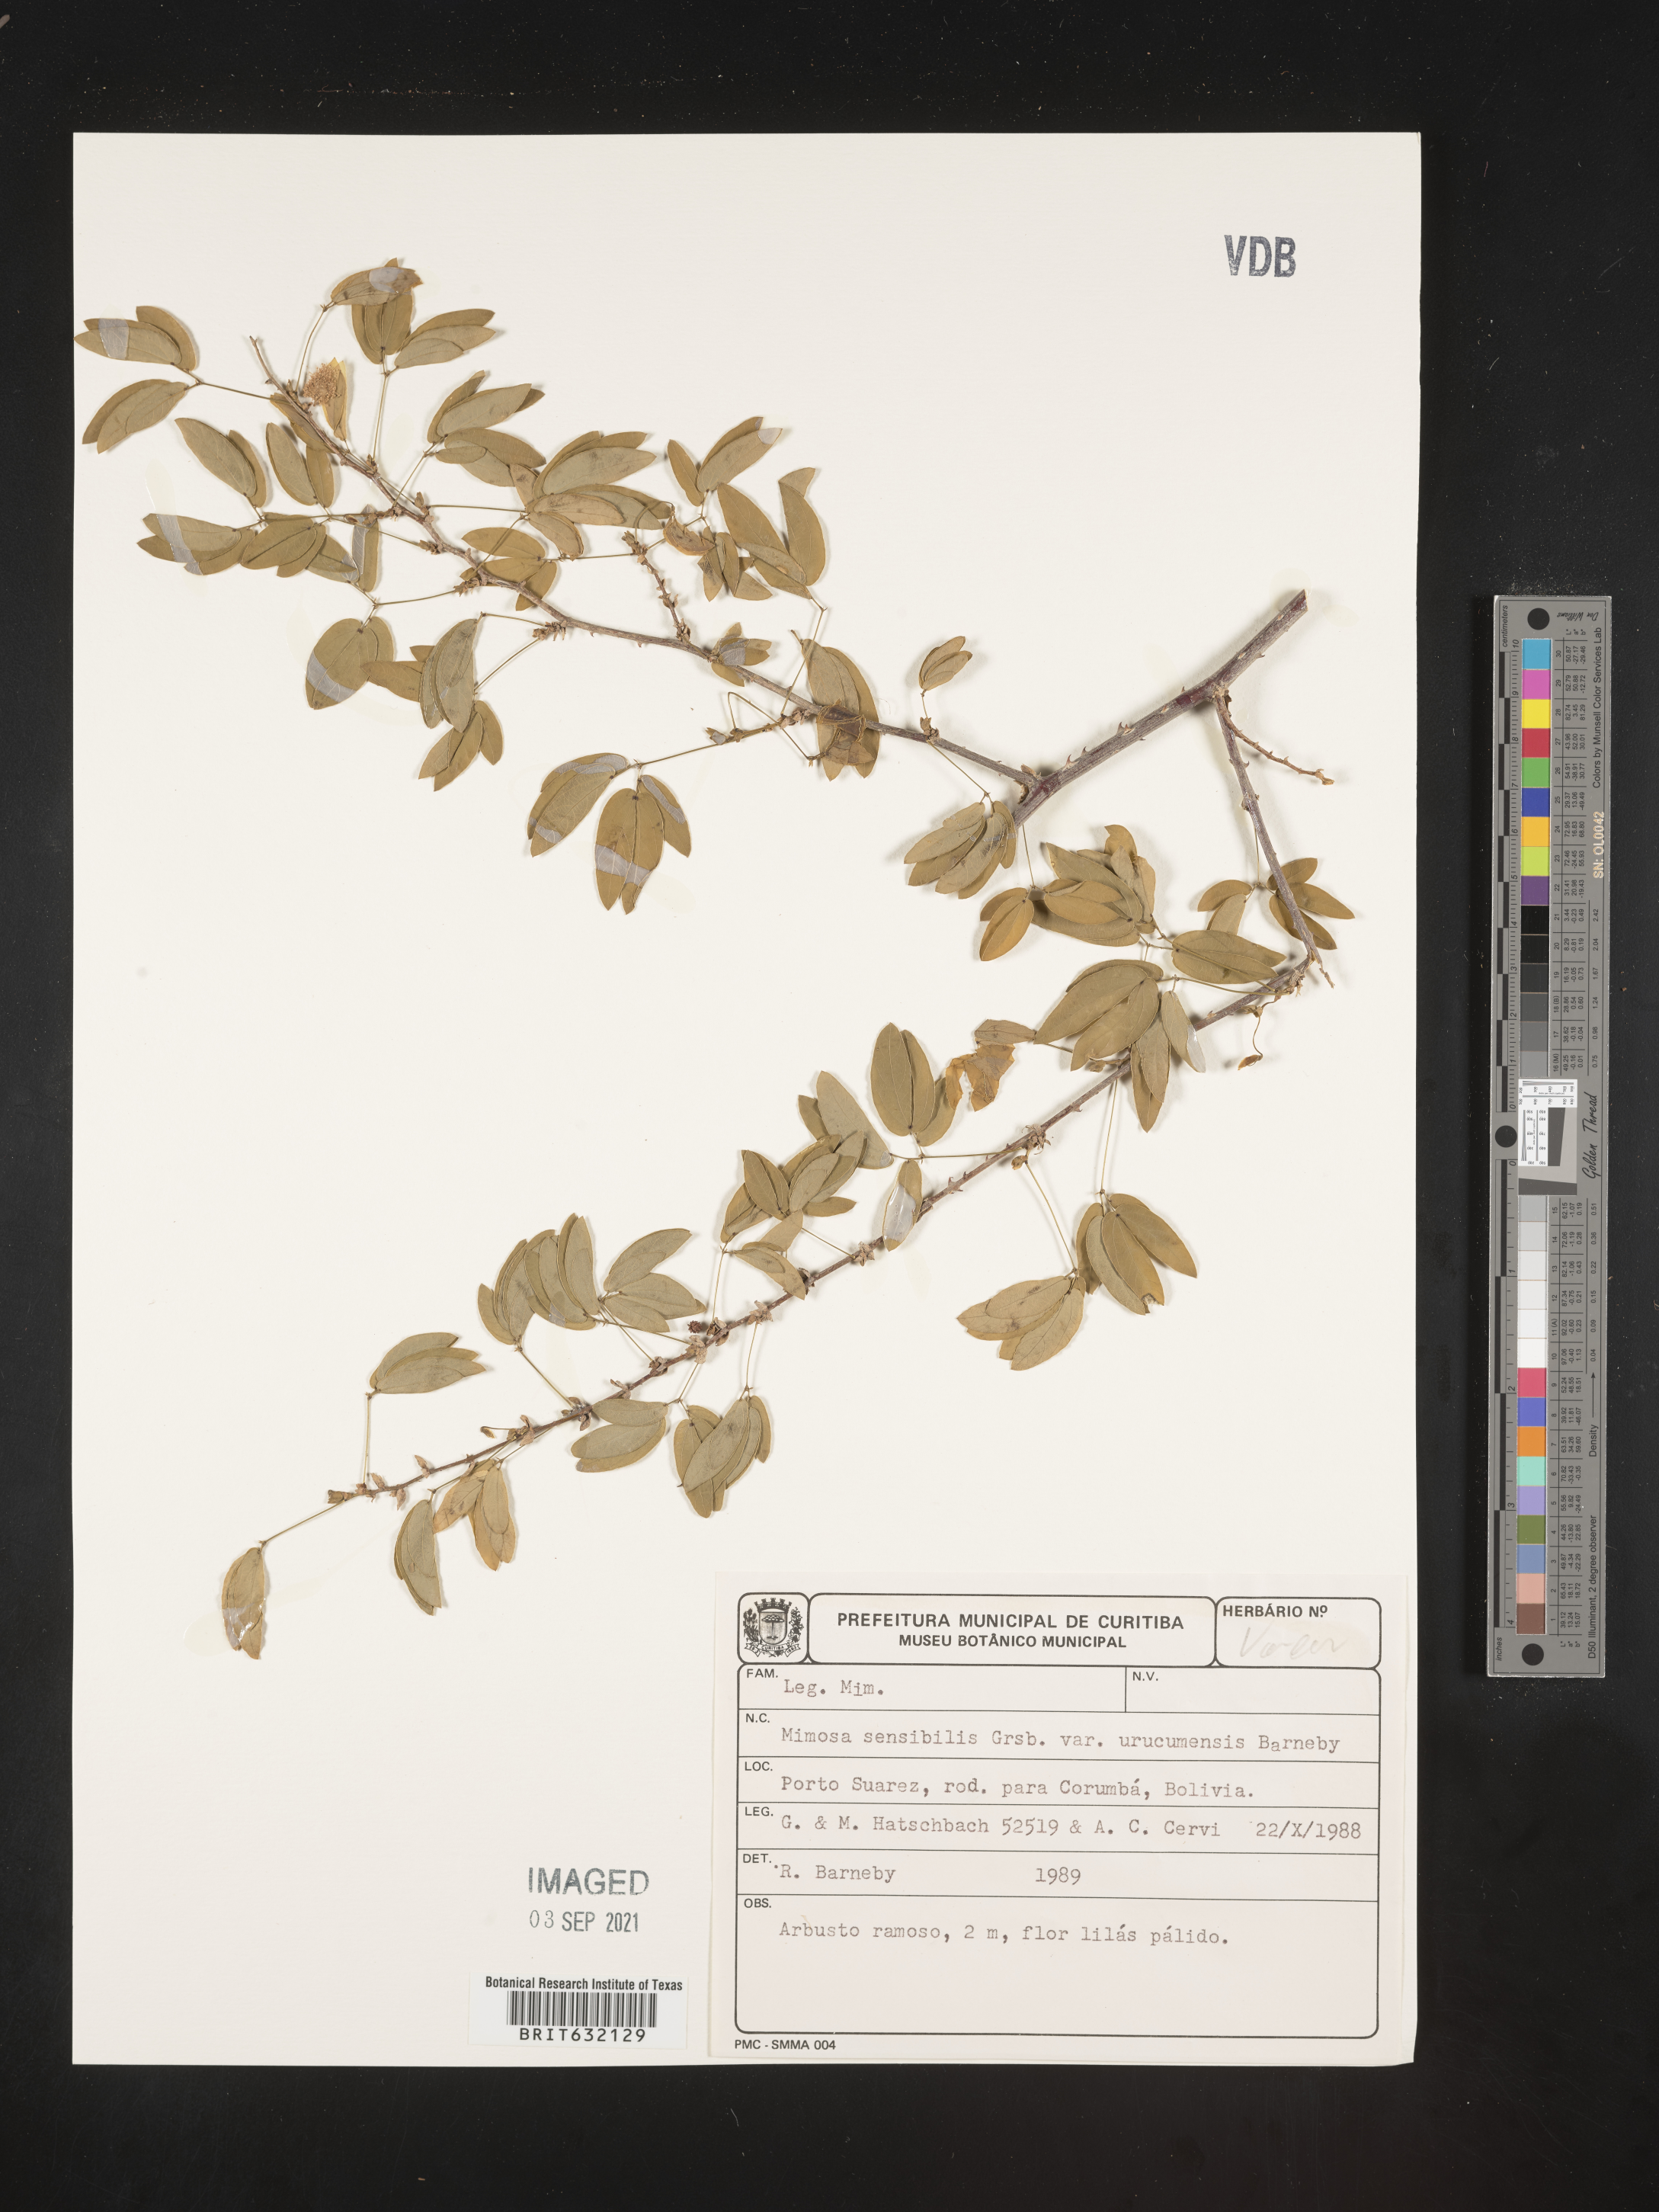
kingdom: Plantae
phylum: Tracheophyta
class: Magnoliopsida
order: Fabales
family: Fabaceae
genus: Mimosa
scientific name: Mimosa
